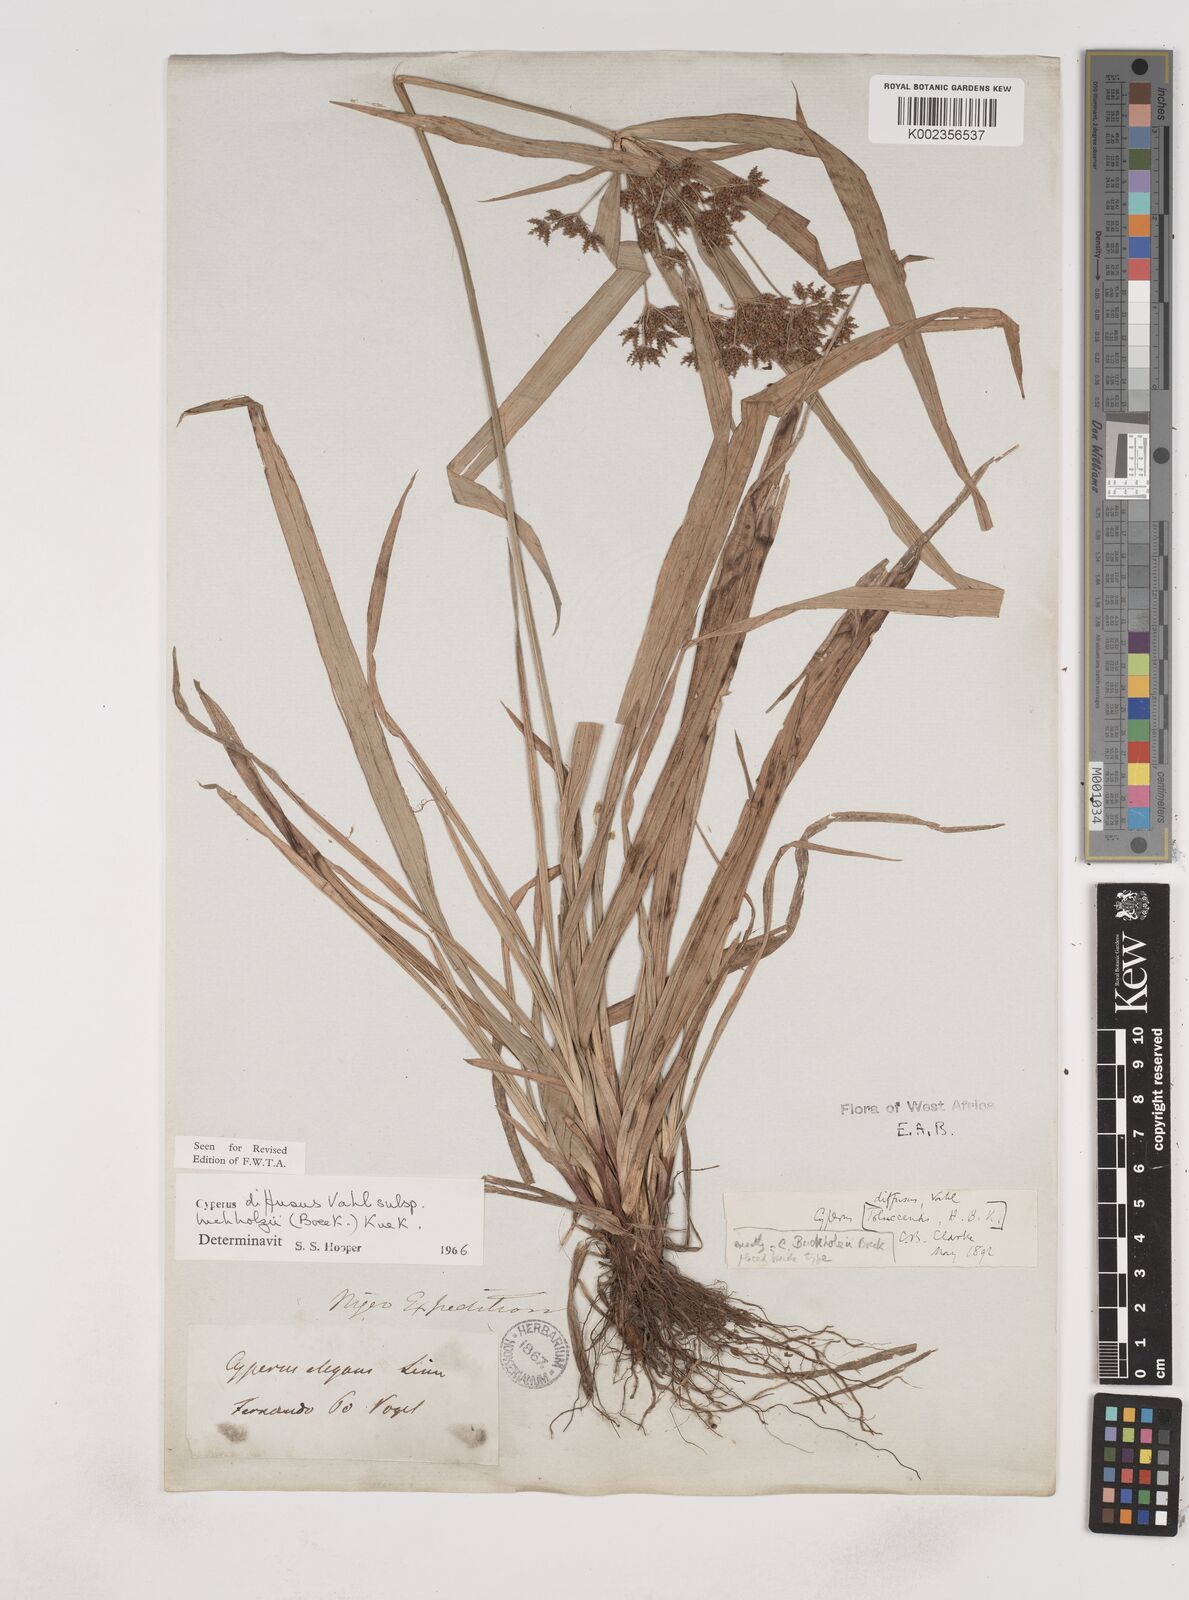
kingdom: Plantae
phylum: Tracheophyta
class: Liliopsida
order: Poales
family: Cyperaceae
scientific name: Cyperaceae
